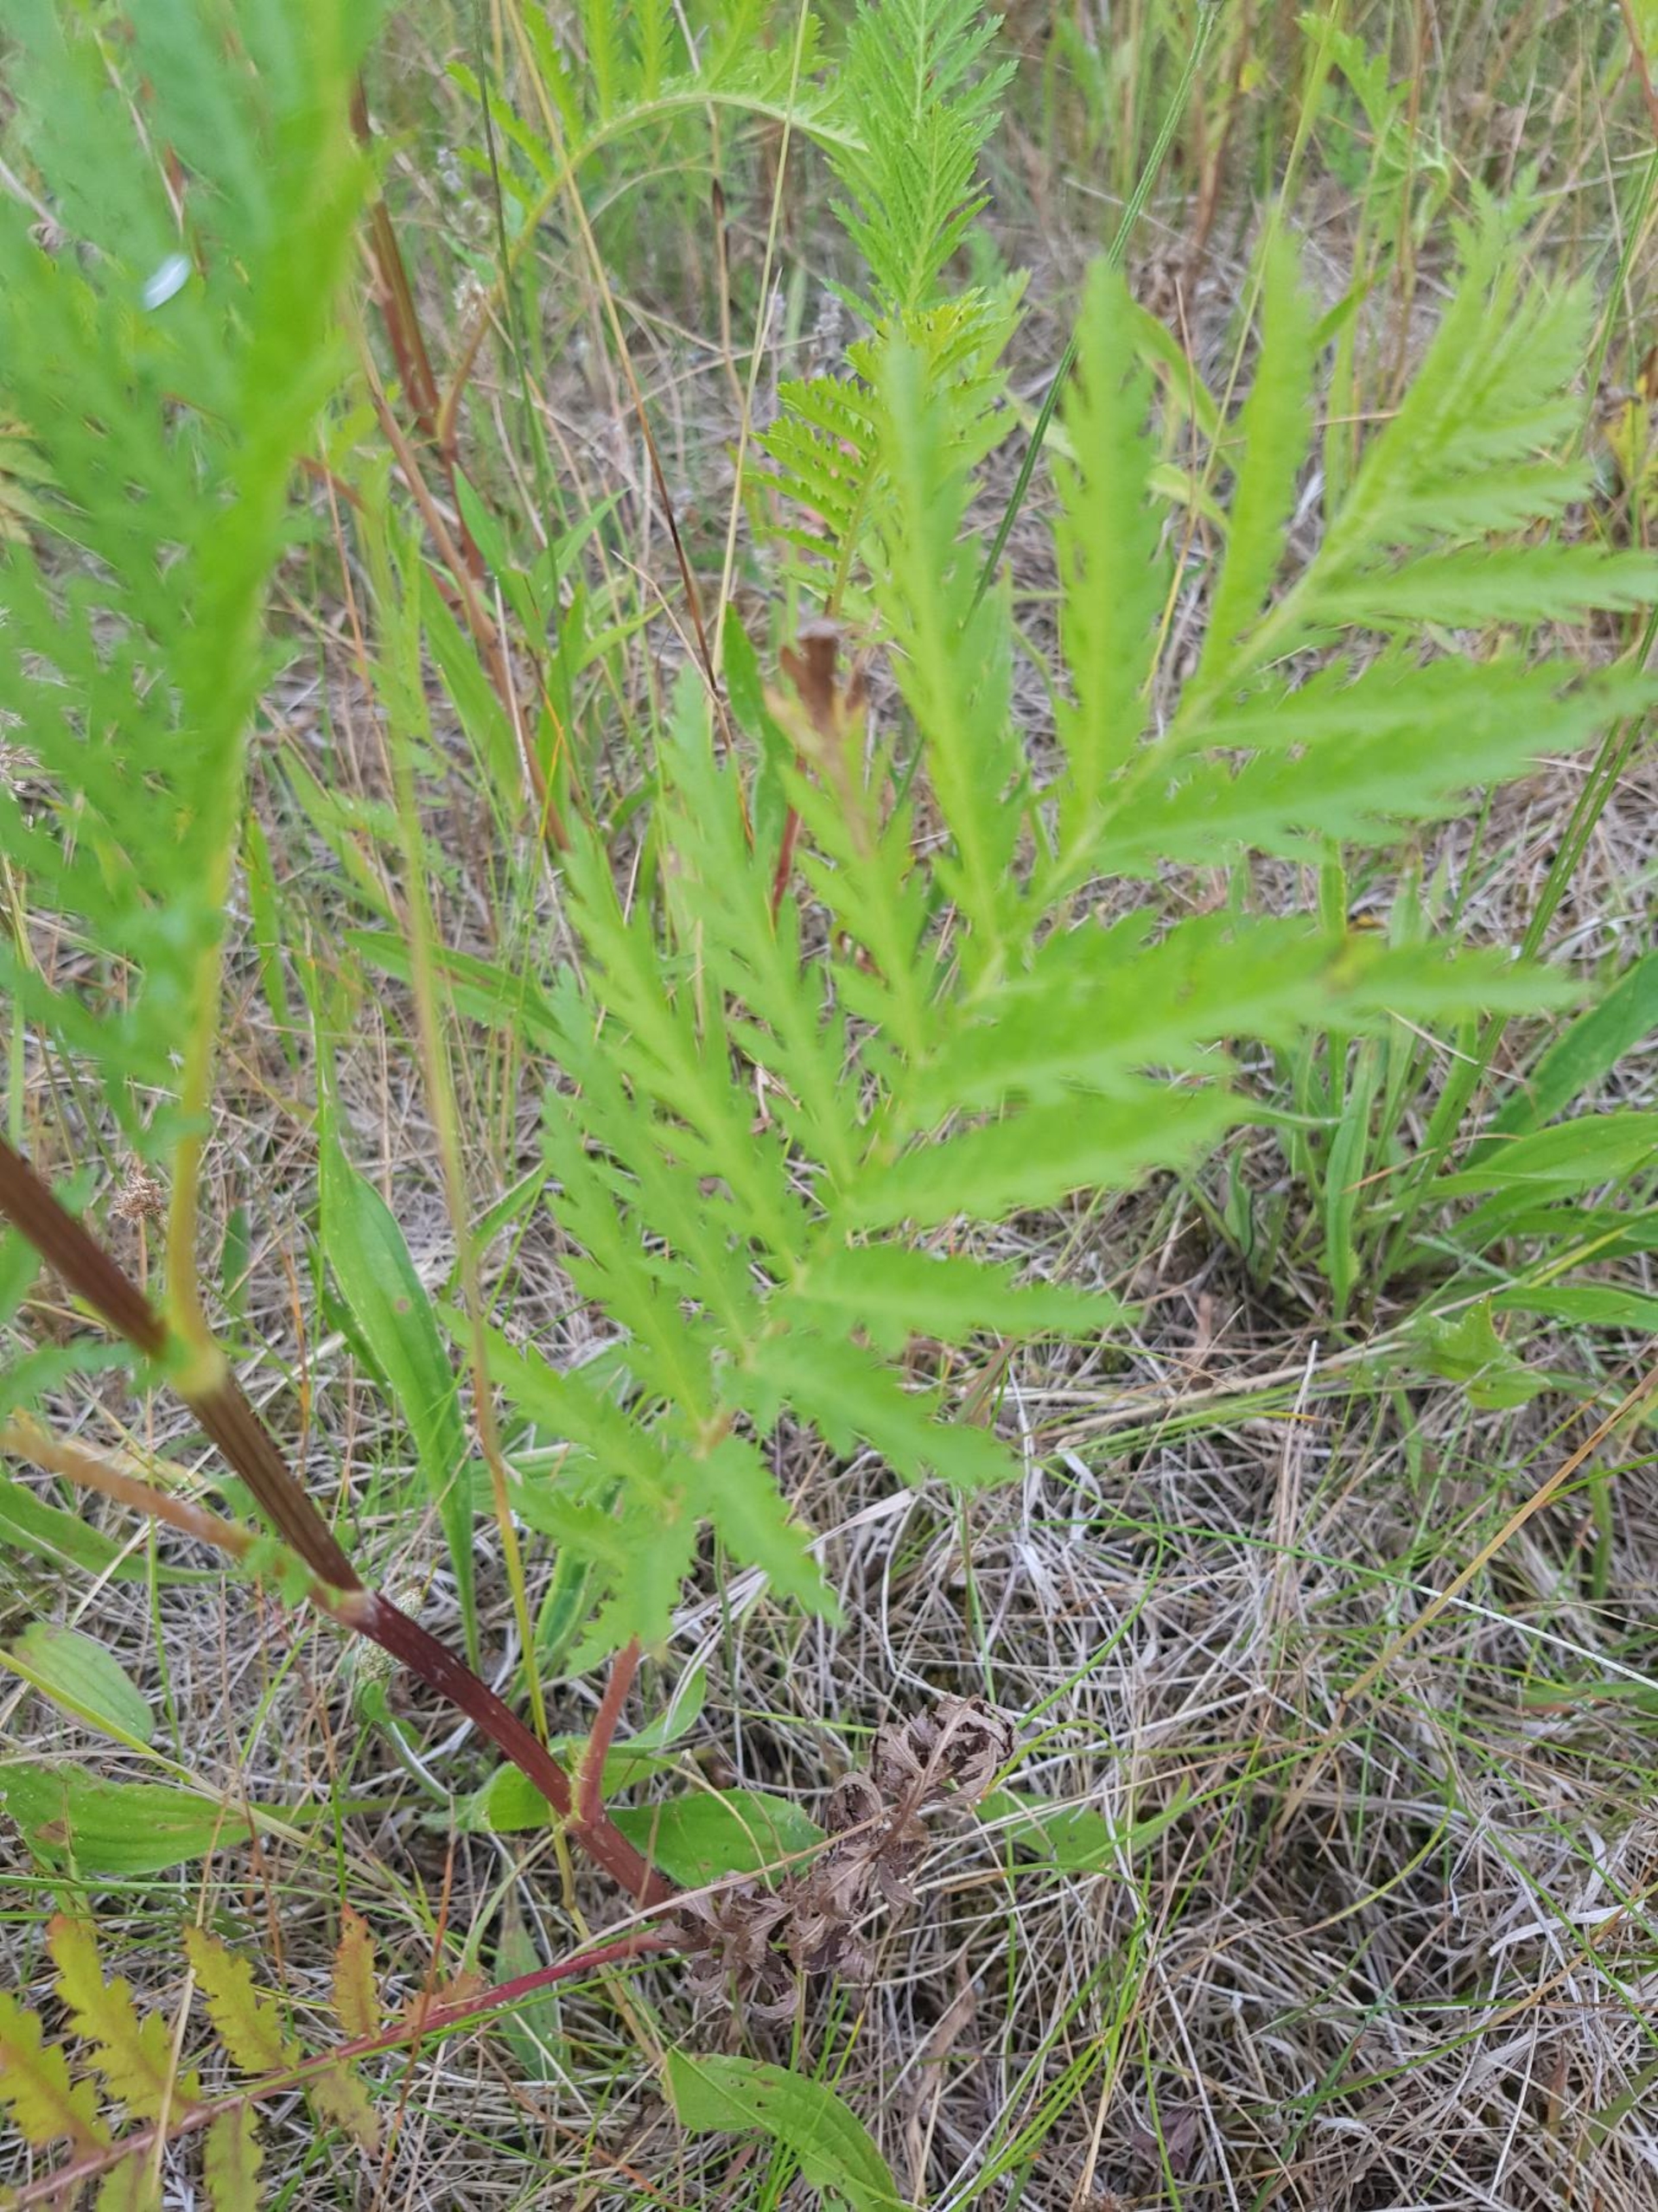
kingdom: Plantae
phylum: Tracheophyta
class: Magnoliopsida
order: Asterales
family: Asteraceae
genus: Tanacetum
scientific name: Tanacetum vulgare
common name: Rejnfan
